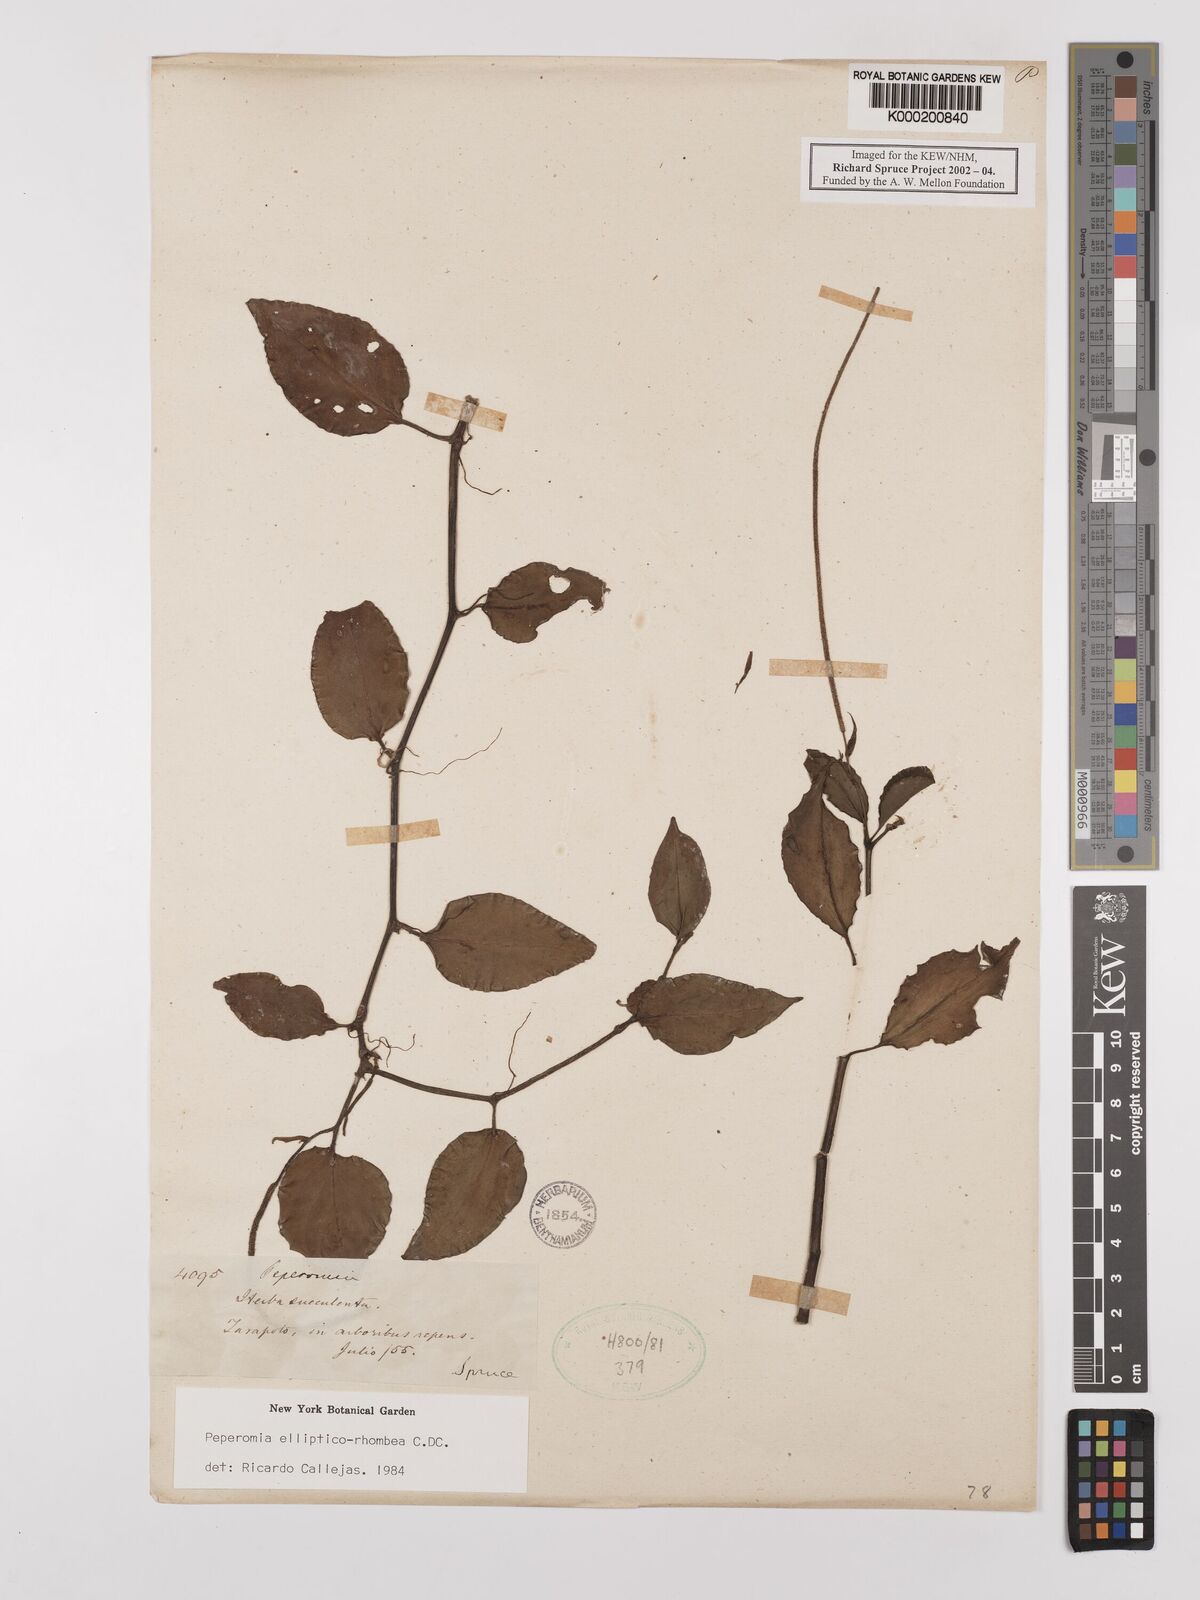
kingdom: Plantae
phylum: Tracheophyta
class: Magnoliopsida
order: Piperales
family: Piperaceae
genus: Peperomia
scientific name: Peperomia ellipticorhombea
